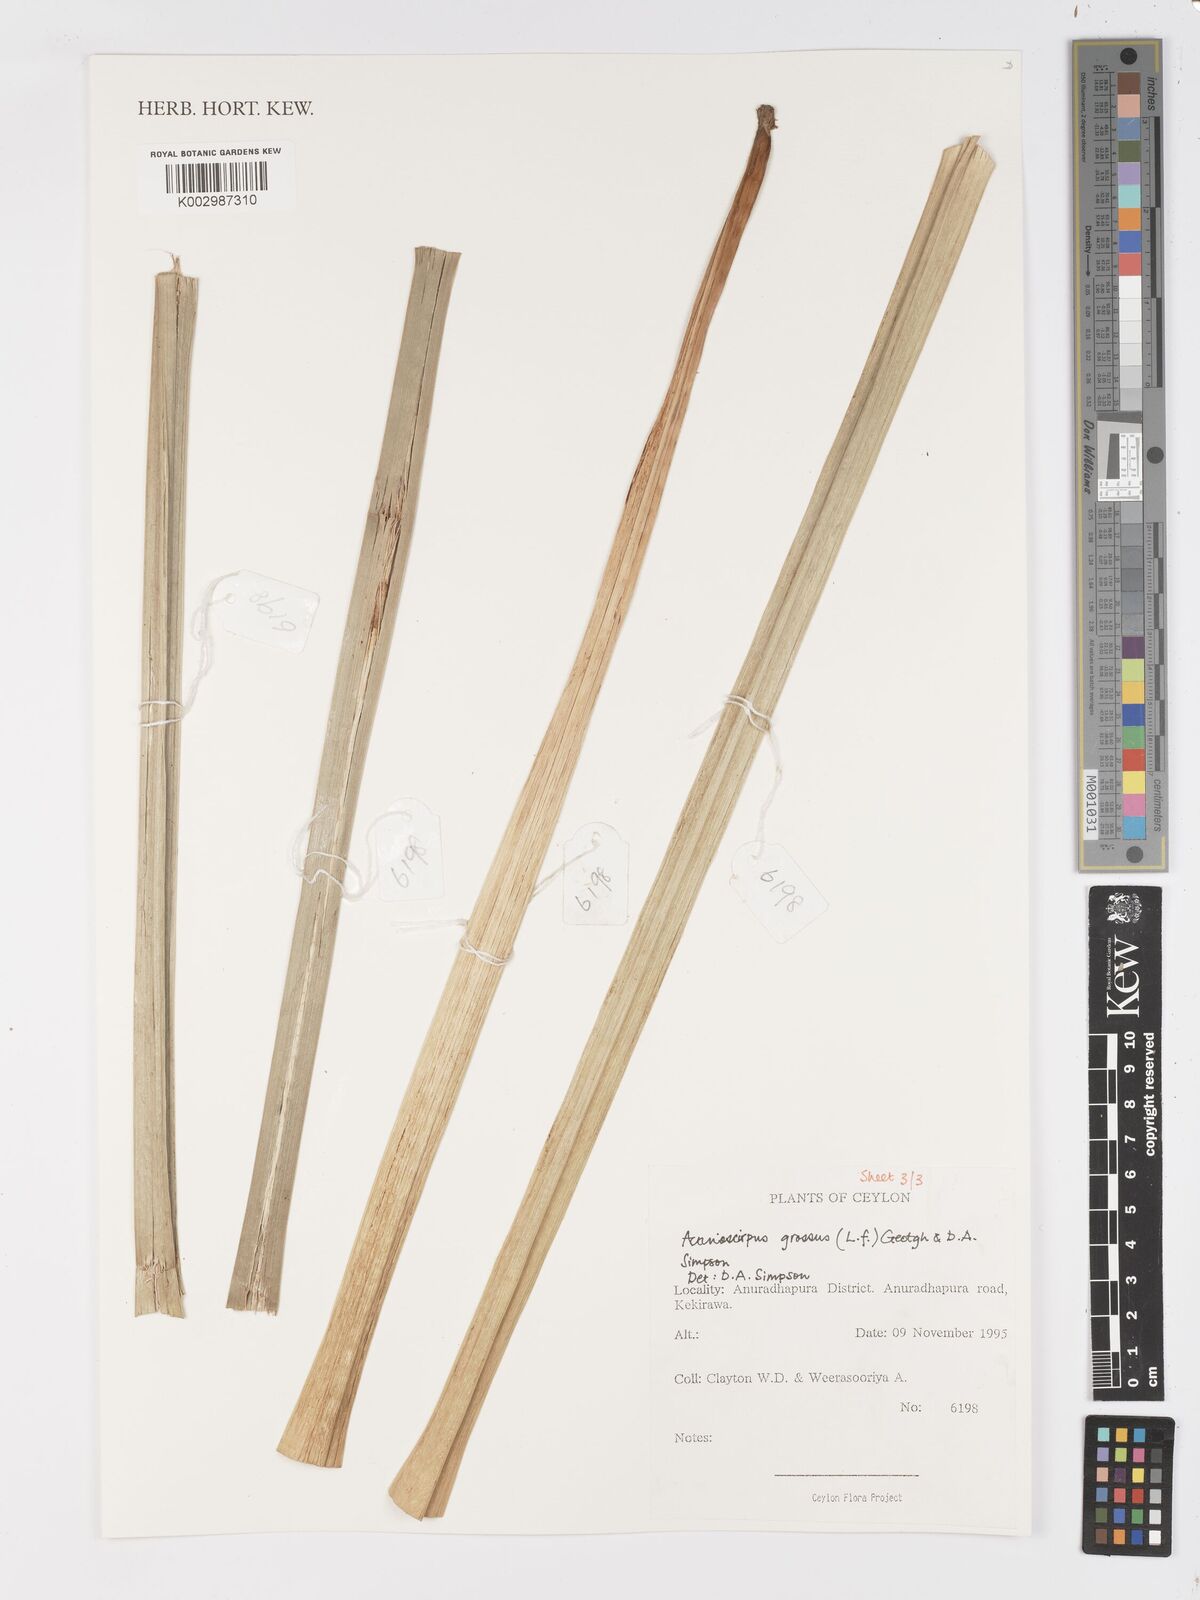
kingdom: Plantae
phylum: Tracheophyta
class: Liliopsida
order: Poales
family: Cyperaceae
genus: Actinoscirpus
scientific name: Actinoscirpus grossus
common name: Giant bur rush
